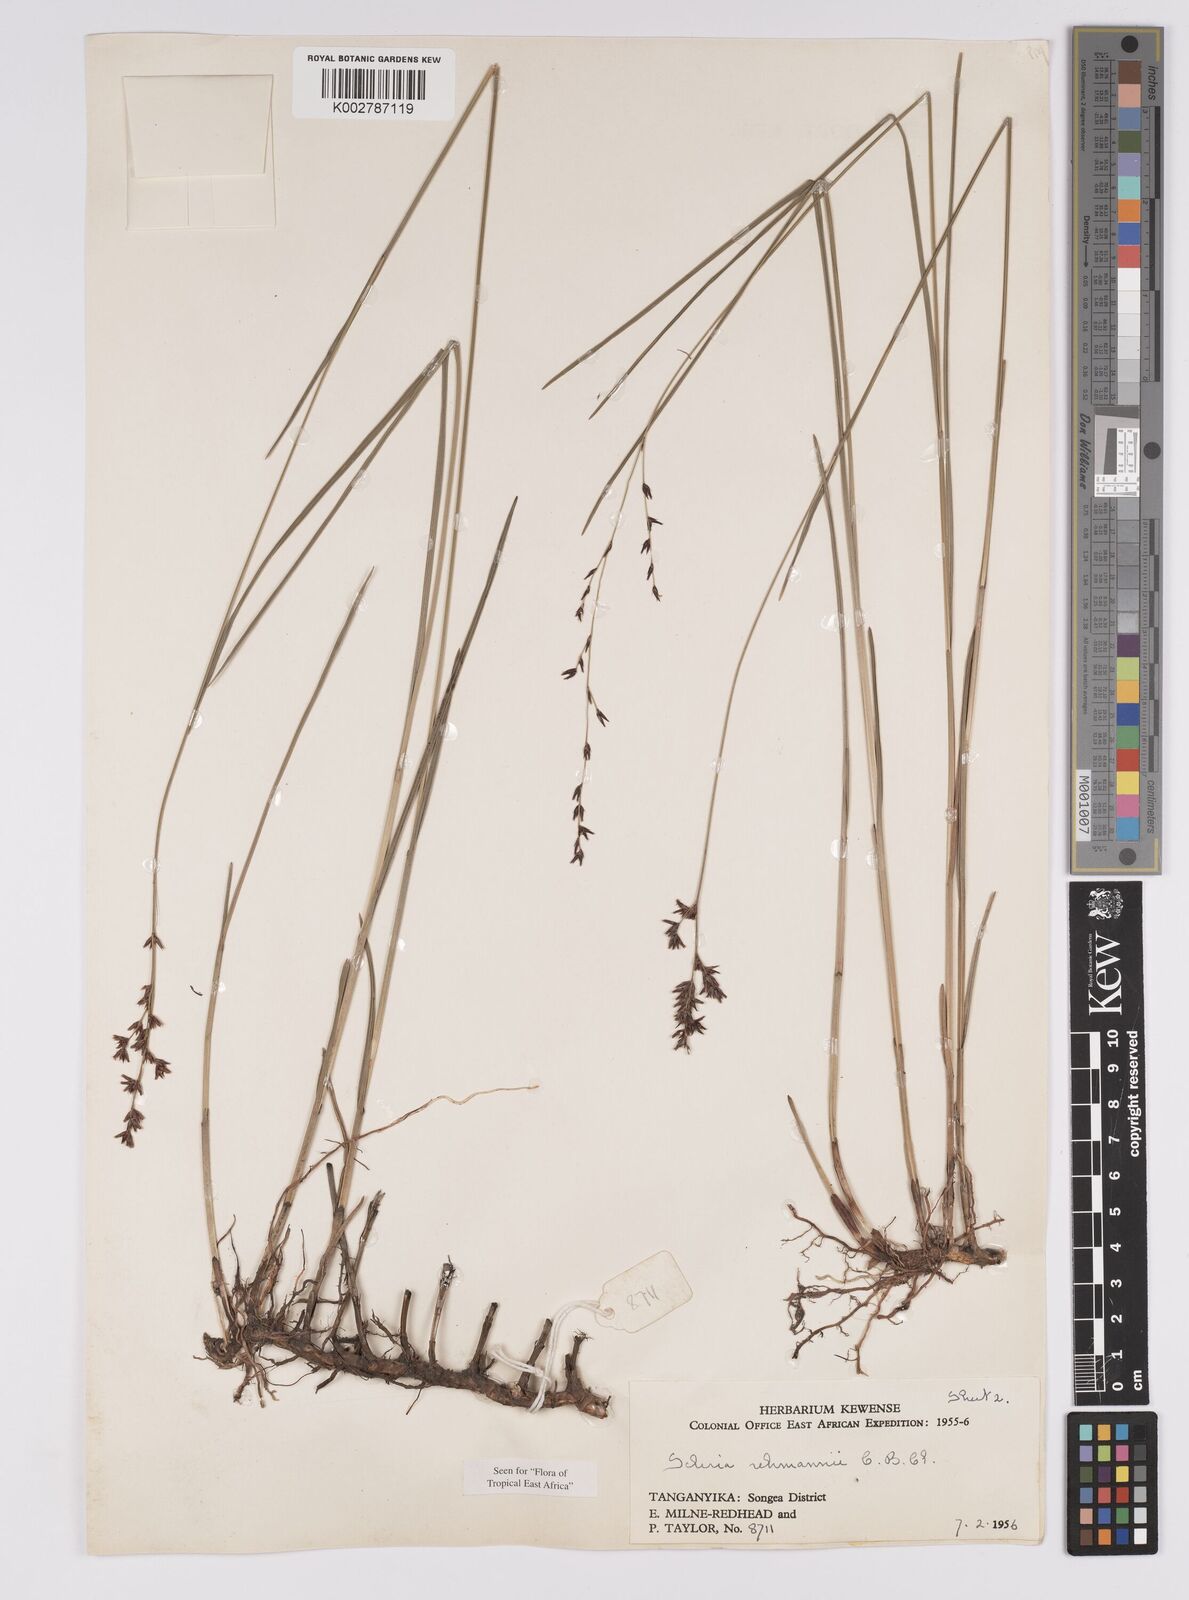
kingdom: Plantae
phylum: Tracheophyta
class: Liliopsida
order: Poales
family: Cyperaceae
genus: Scleria
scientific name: Scleria rehmannii
